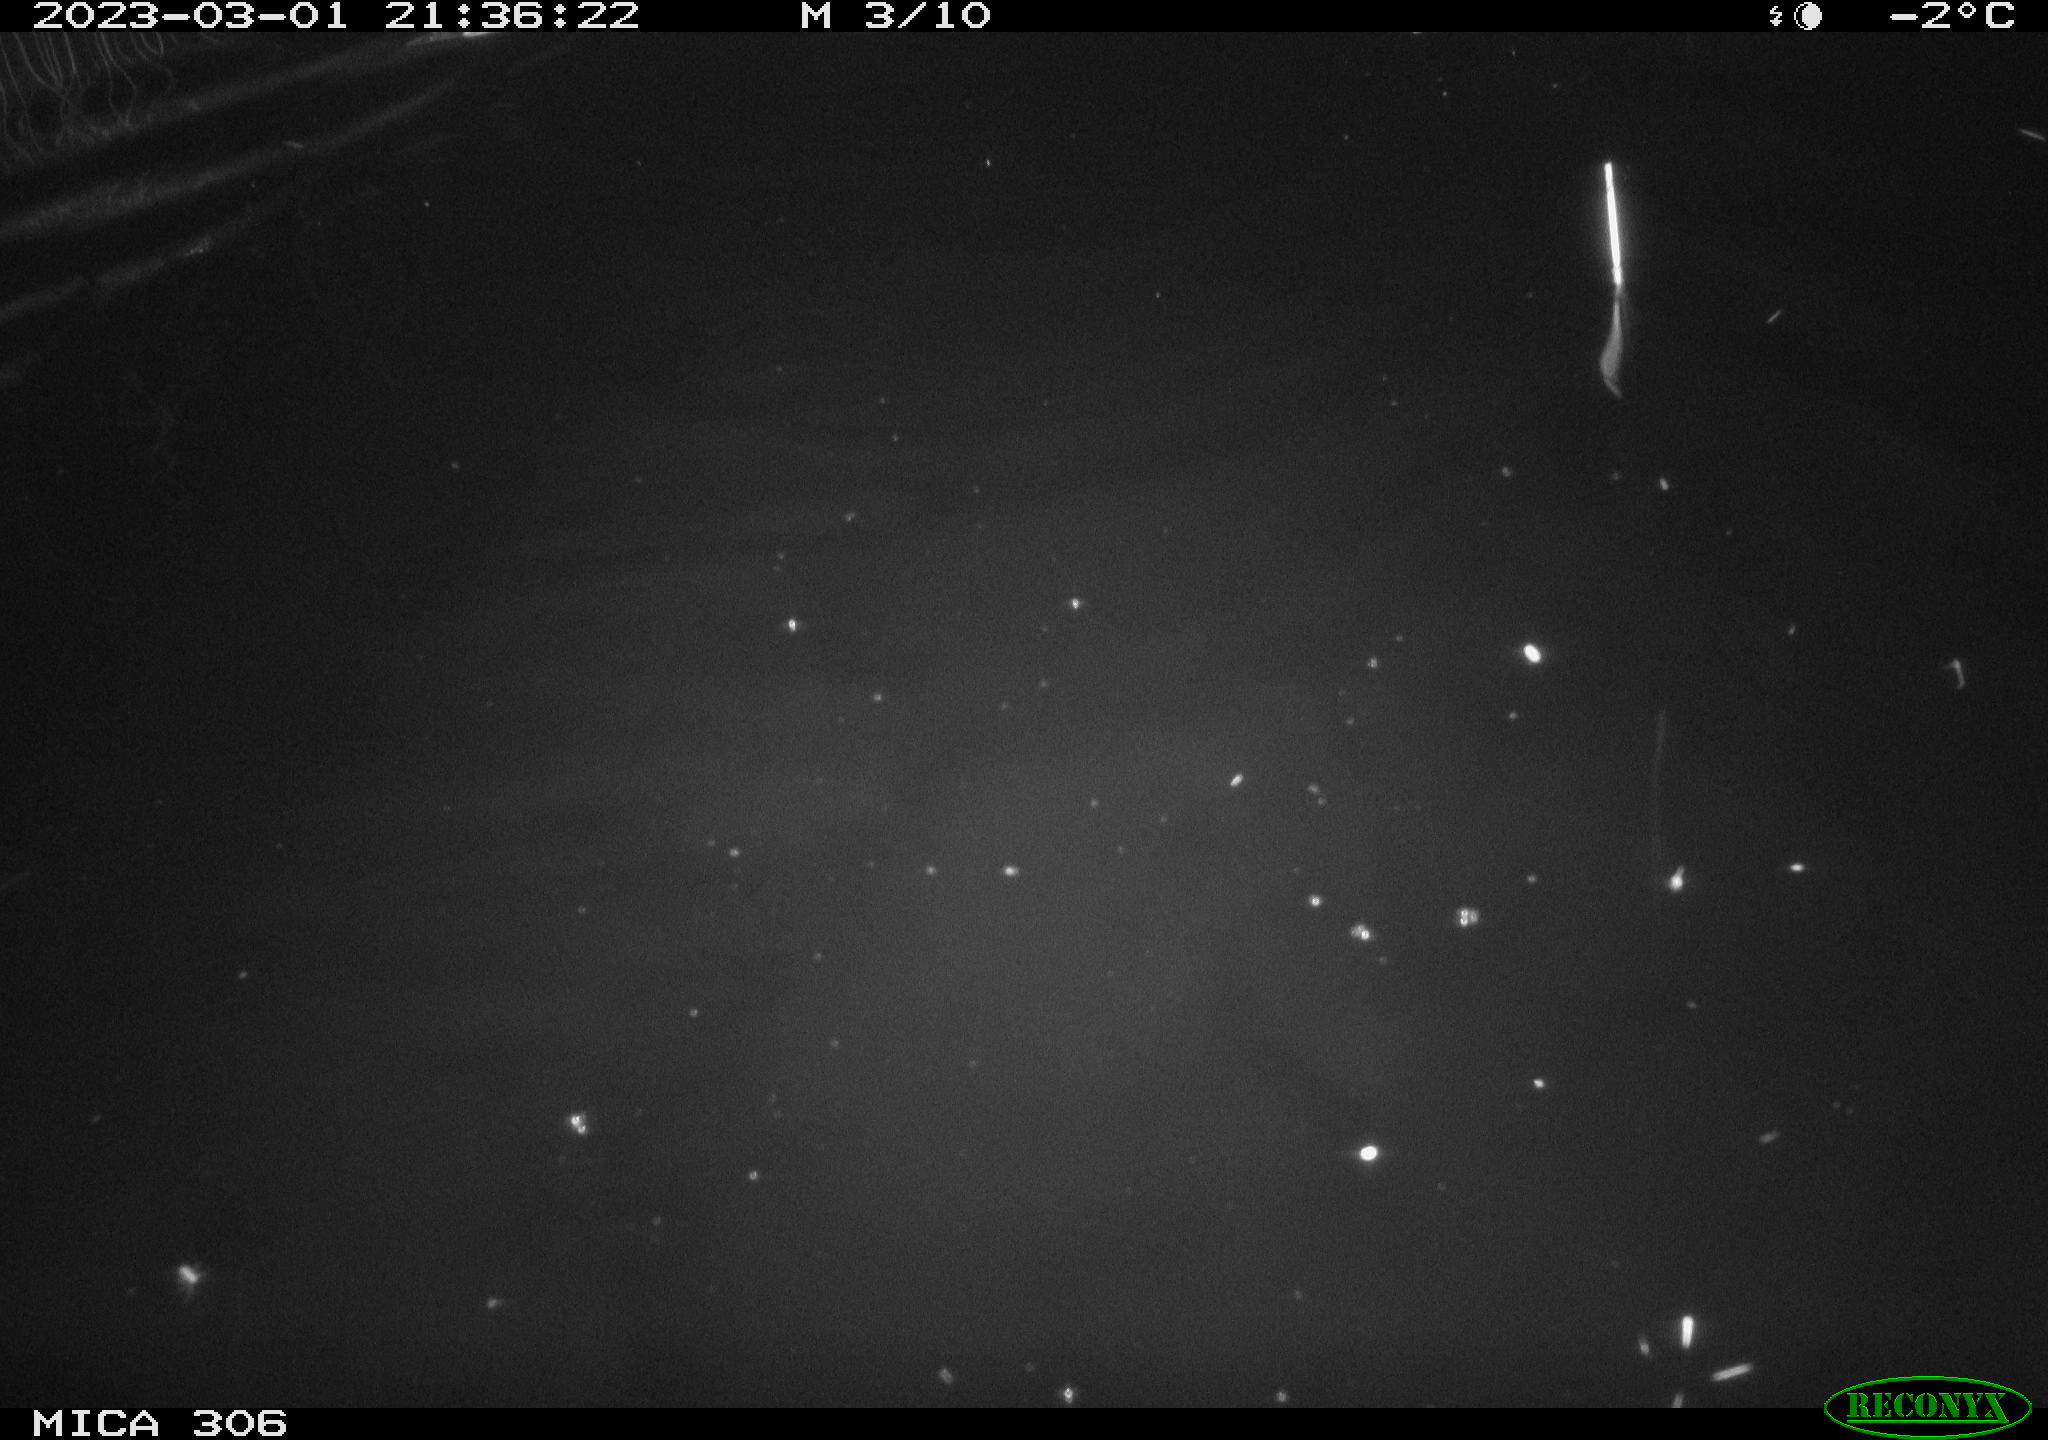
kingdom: Animalia
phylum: Chordata
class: Mammalia
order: Rodentia
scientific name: Rodentia
